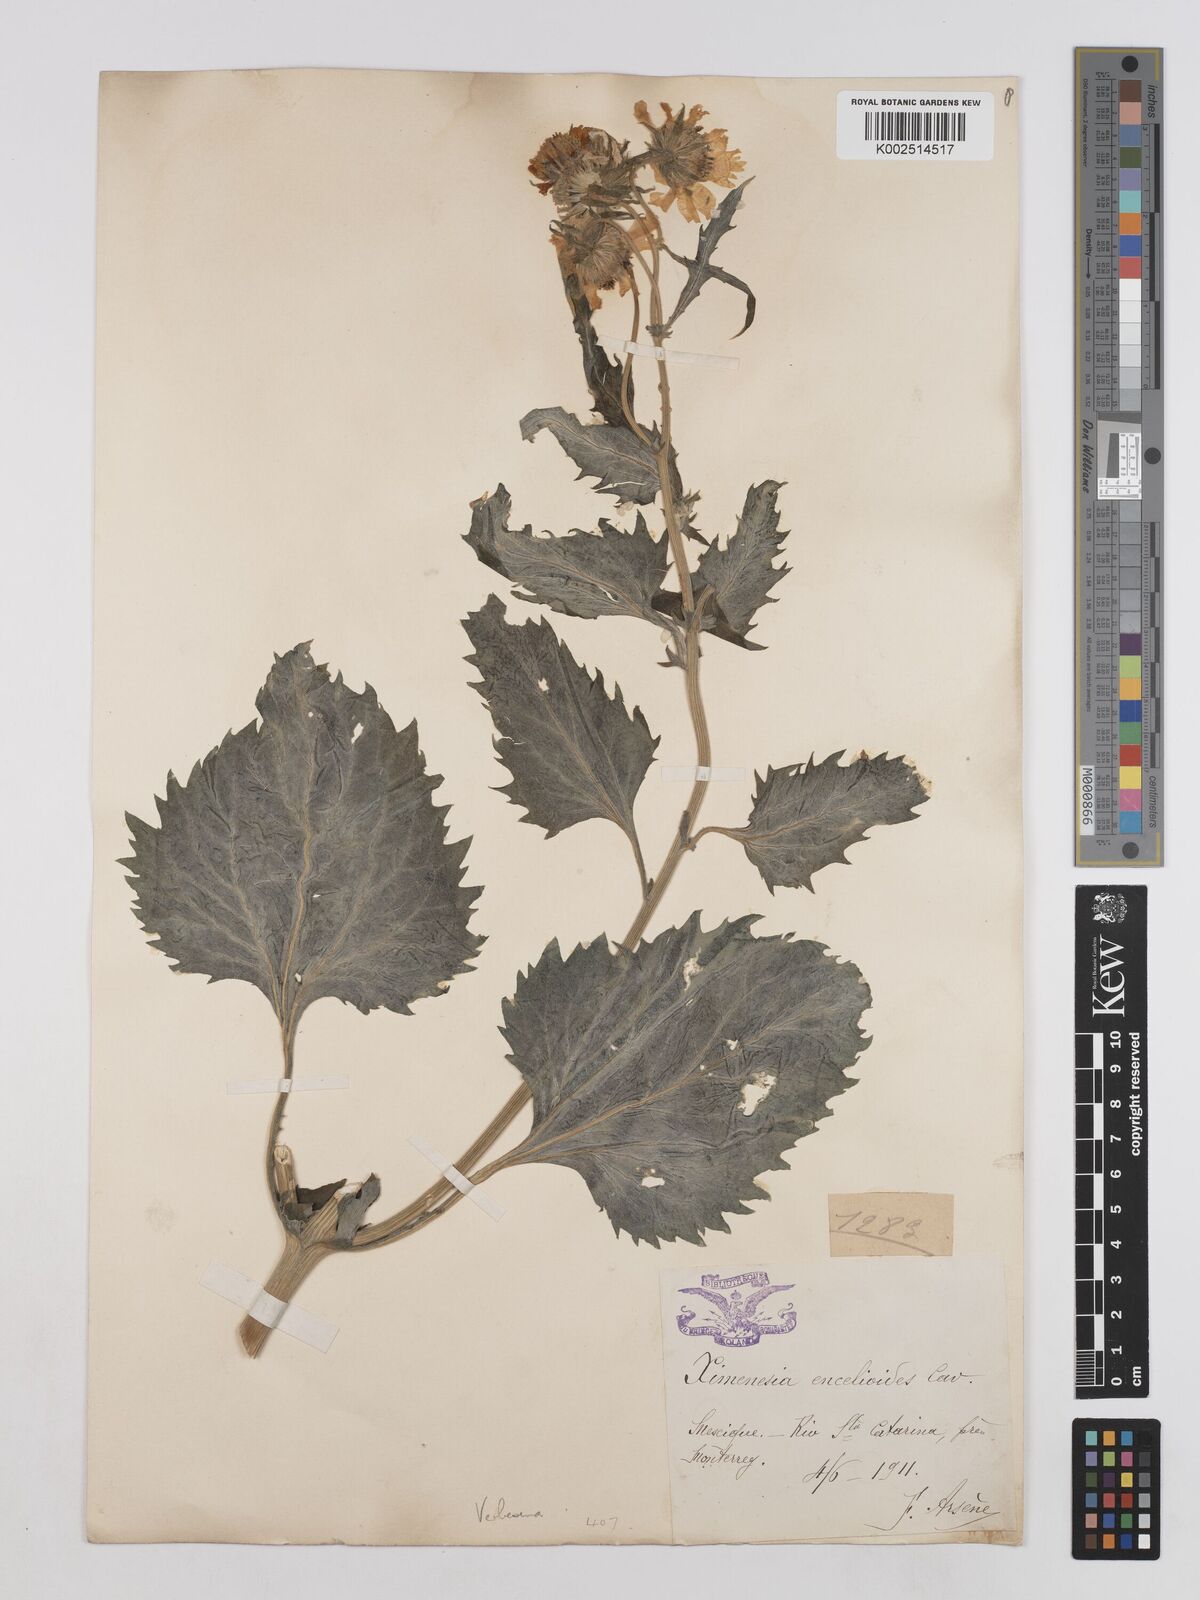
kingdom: Plantae
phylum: Tracheophyta
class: Magnoliopsida
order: Asterales
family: Asteraceae
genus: Verbesina
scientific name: Verbesina encelioides
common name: Golden crownbeard
